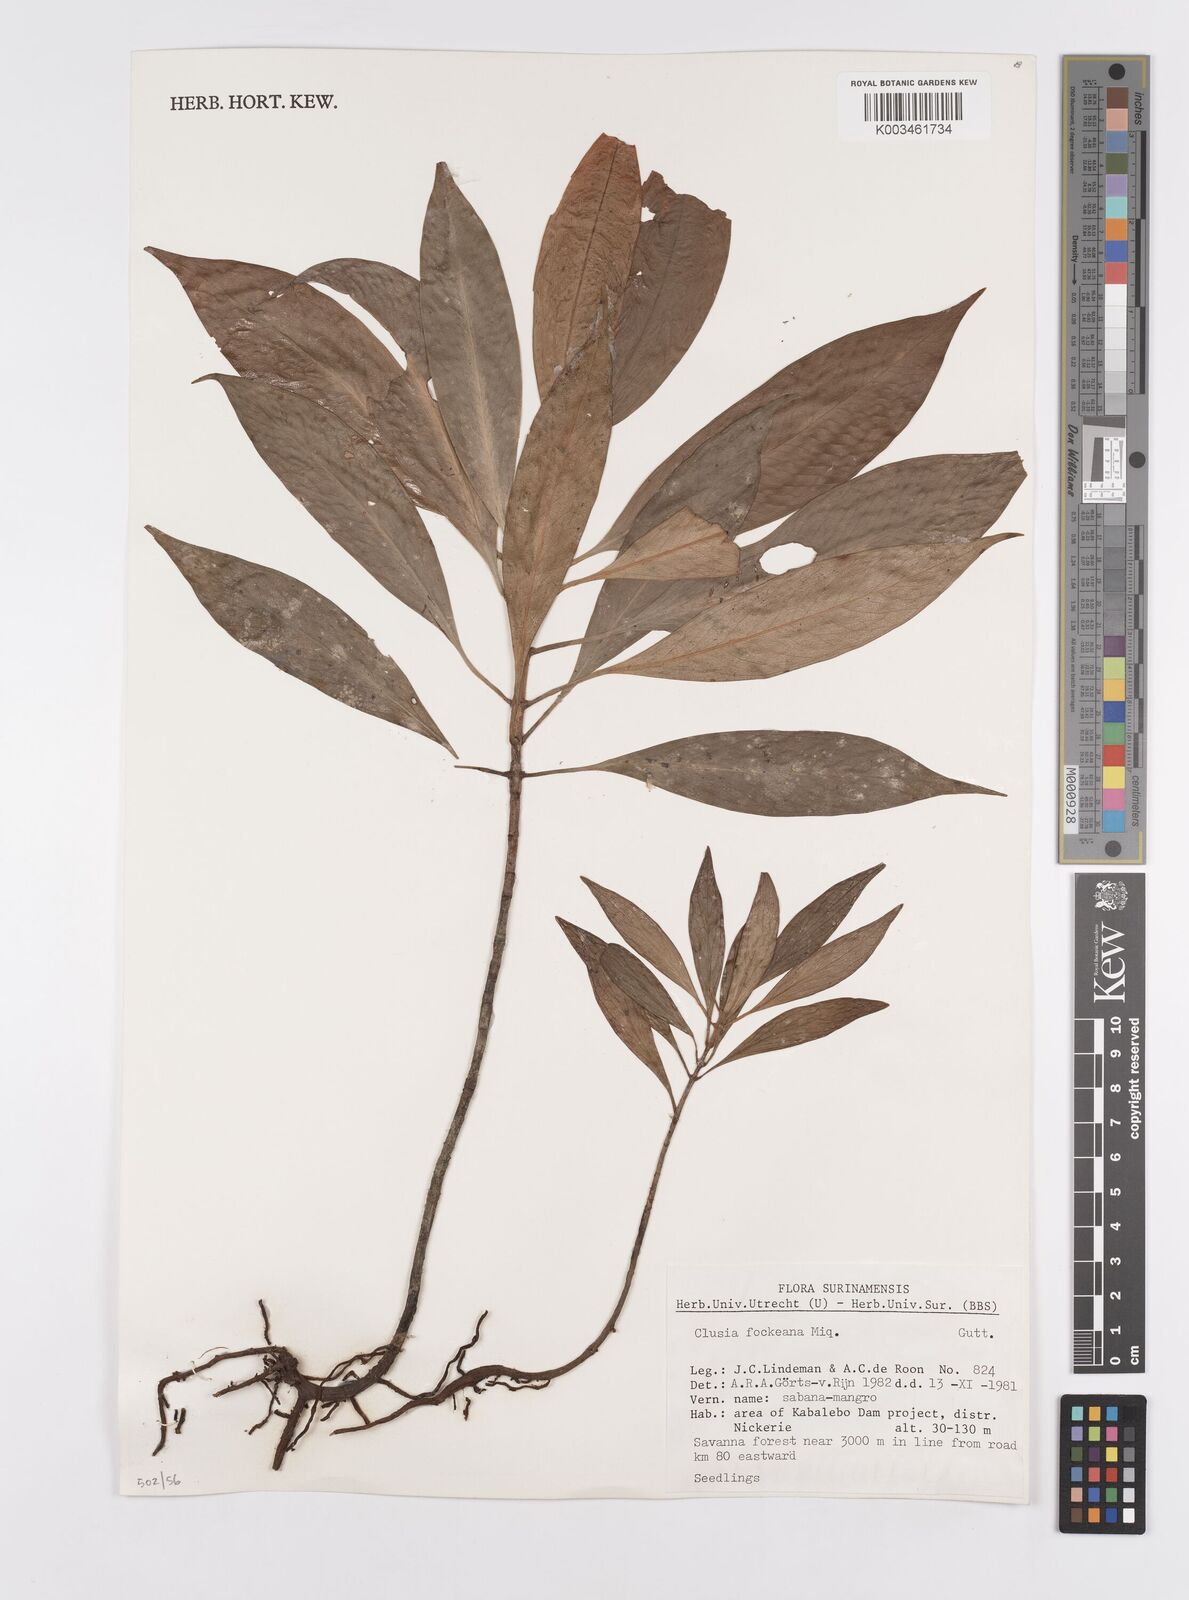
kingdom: Plantae
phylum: Tracheophyta
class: Magnoliopsida
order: Malpighiales
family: Clusiaceae
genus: Clusia
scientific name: Clusia fockeana
